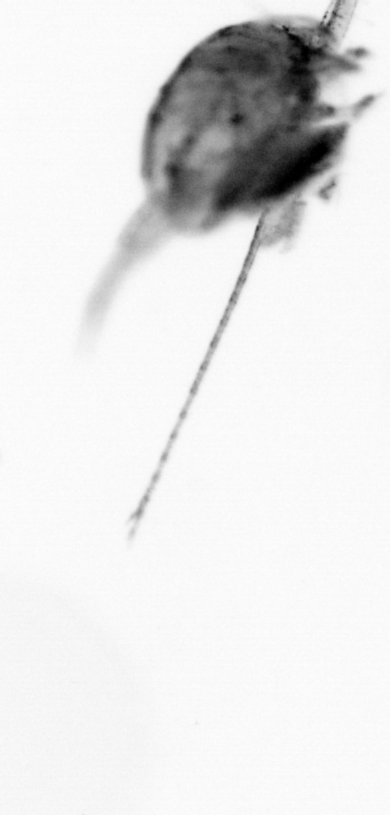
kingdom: Animalia
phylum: Arthropoda
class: Copepoda
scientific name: Copepoda
